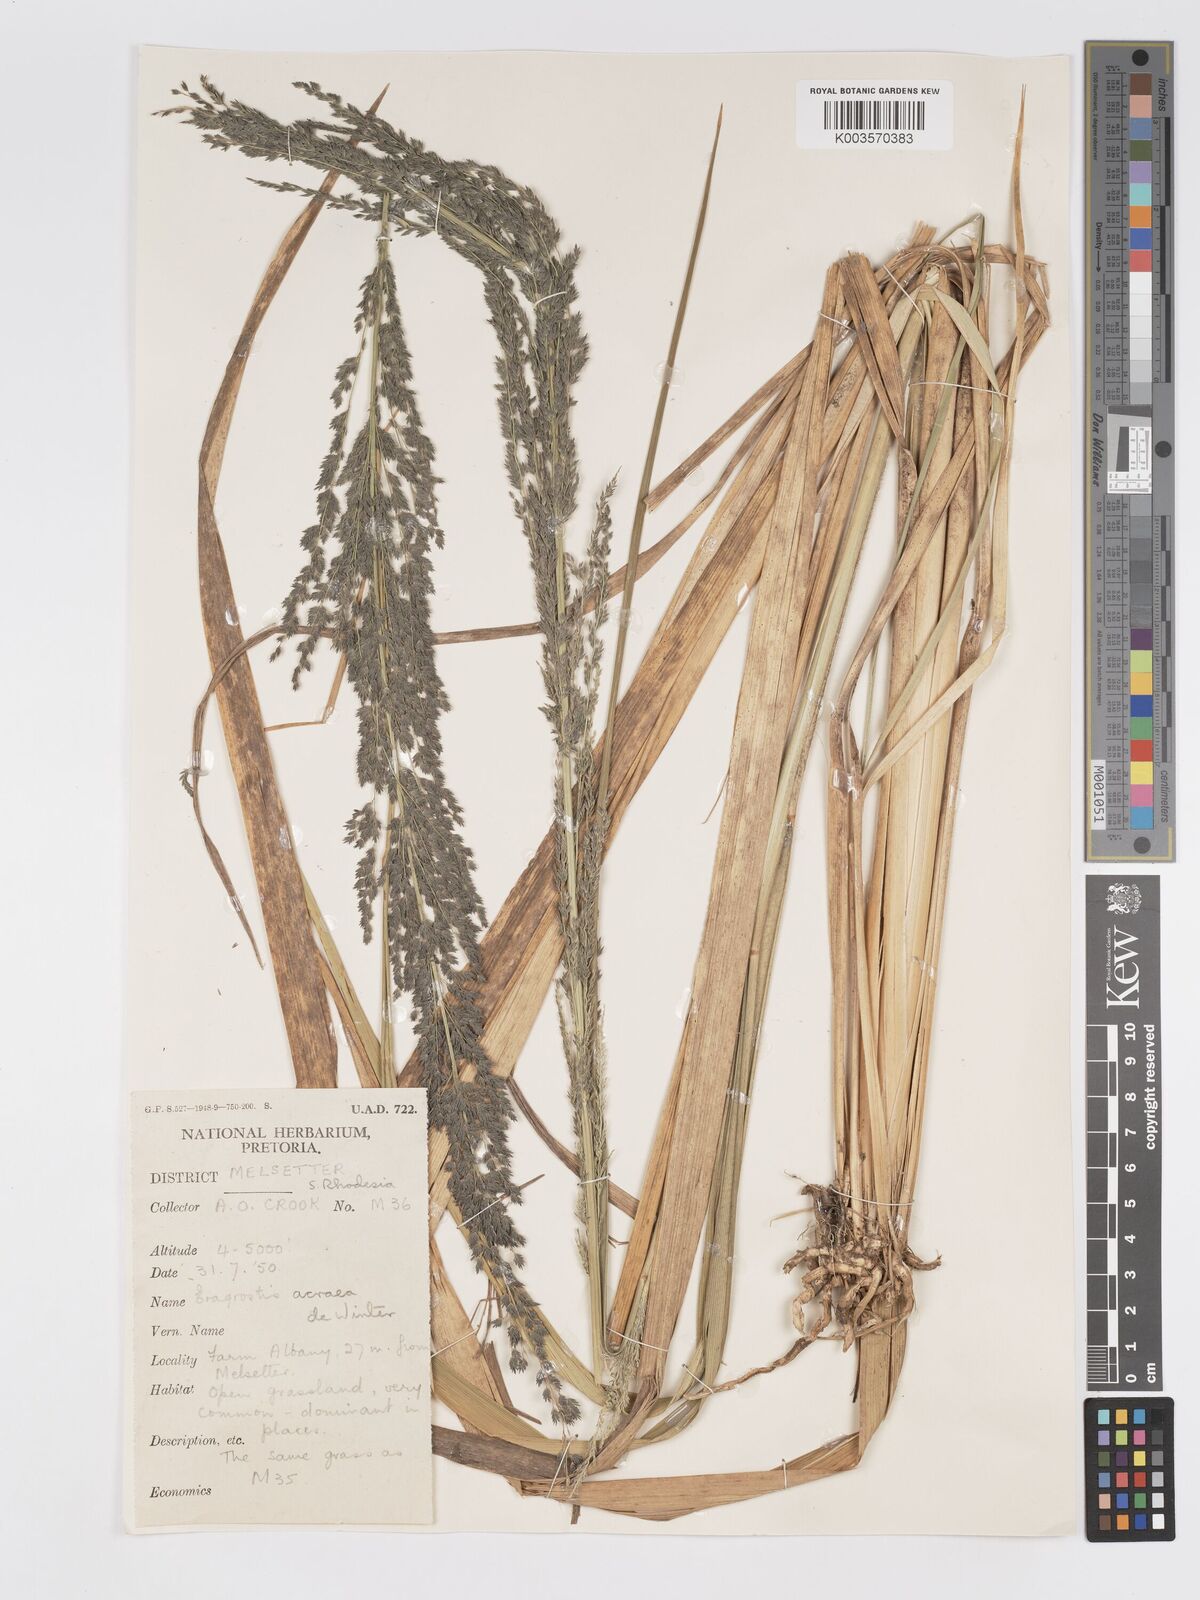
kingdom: Plantae
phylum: Tracheophyta
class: Liliopsida
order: Poales
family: Poaceae
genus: Eragrostis
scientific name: Eragrostis acraea
